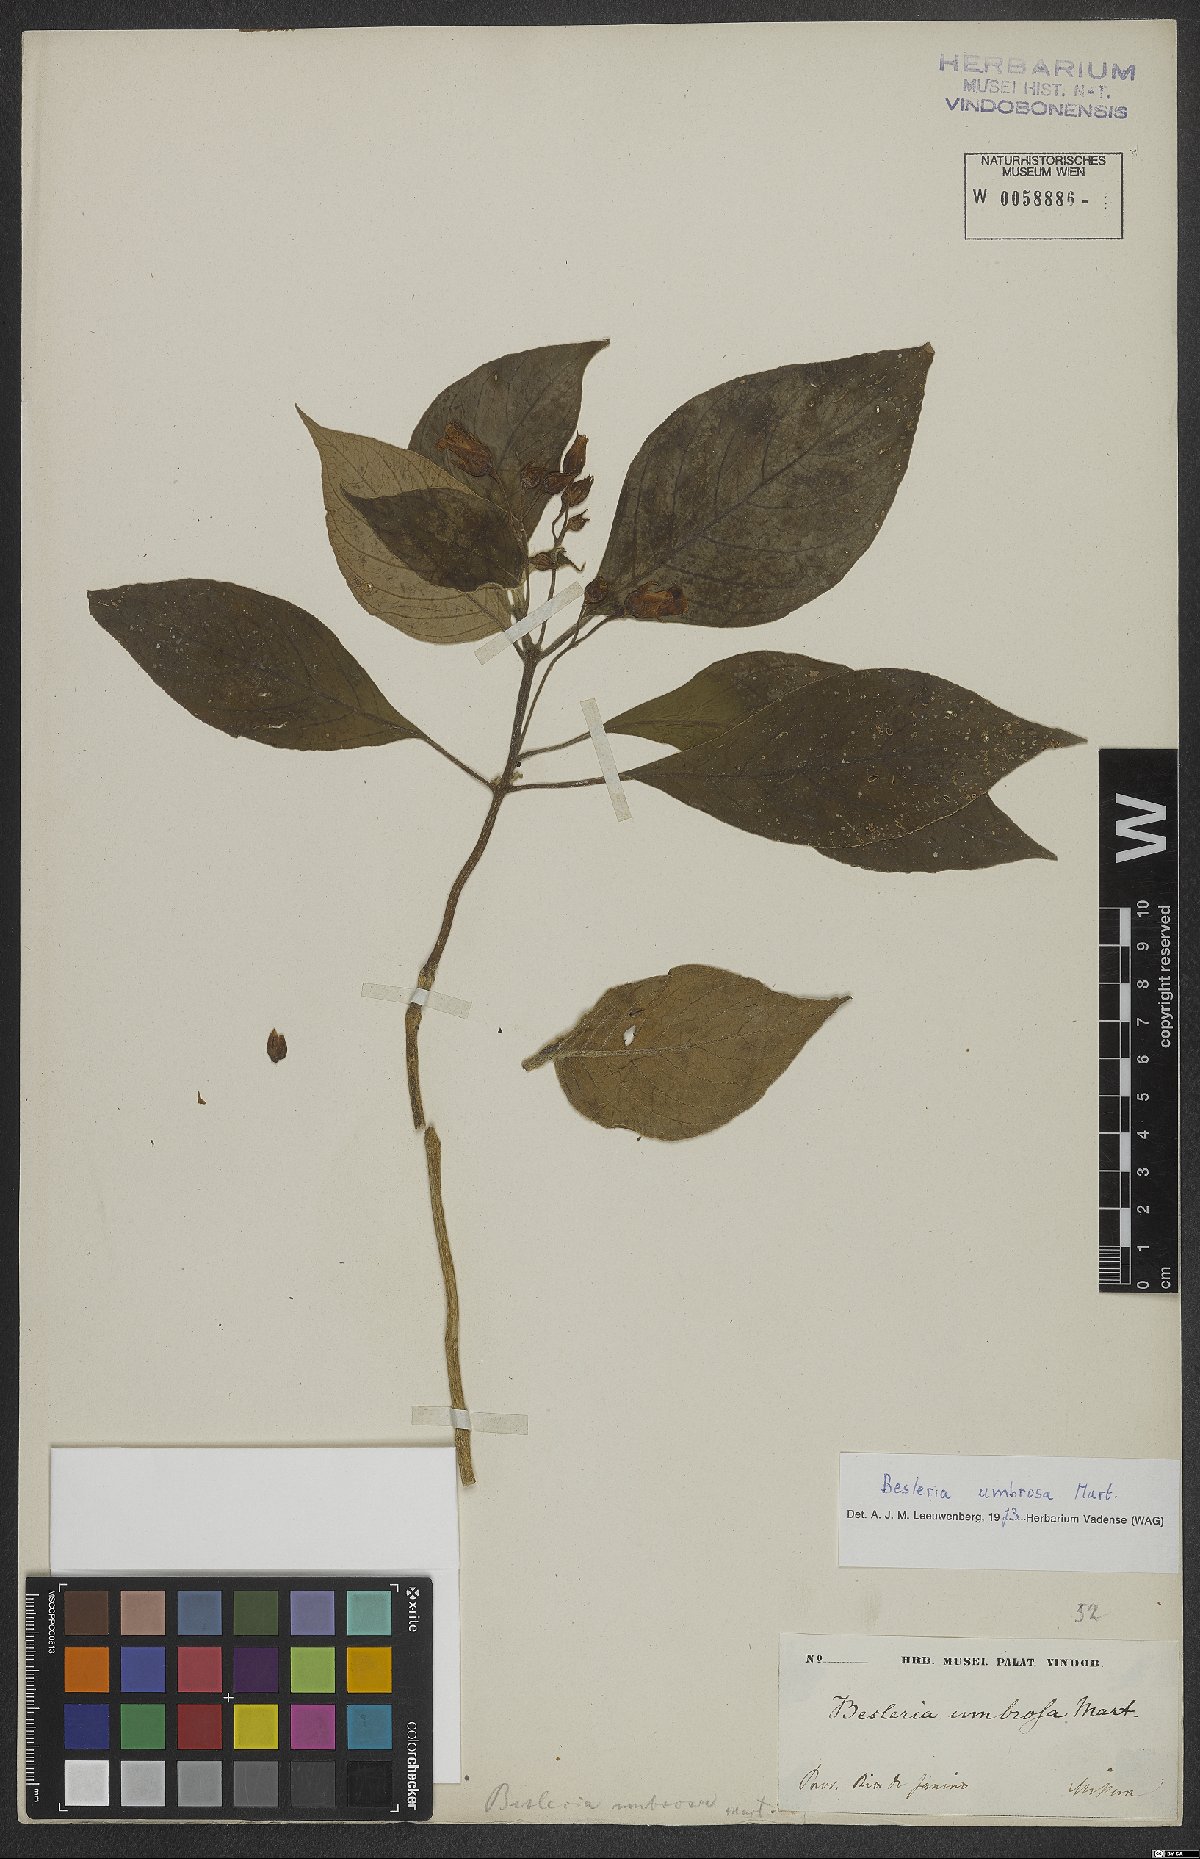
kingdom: Plantae
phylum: Tracheophyta
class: Magnoliopsida
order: Lamiales
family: Gesneriaceae
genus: Besleria
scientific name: Besleria umbrosa
